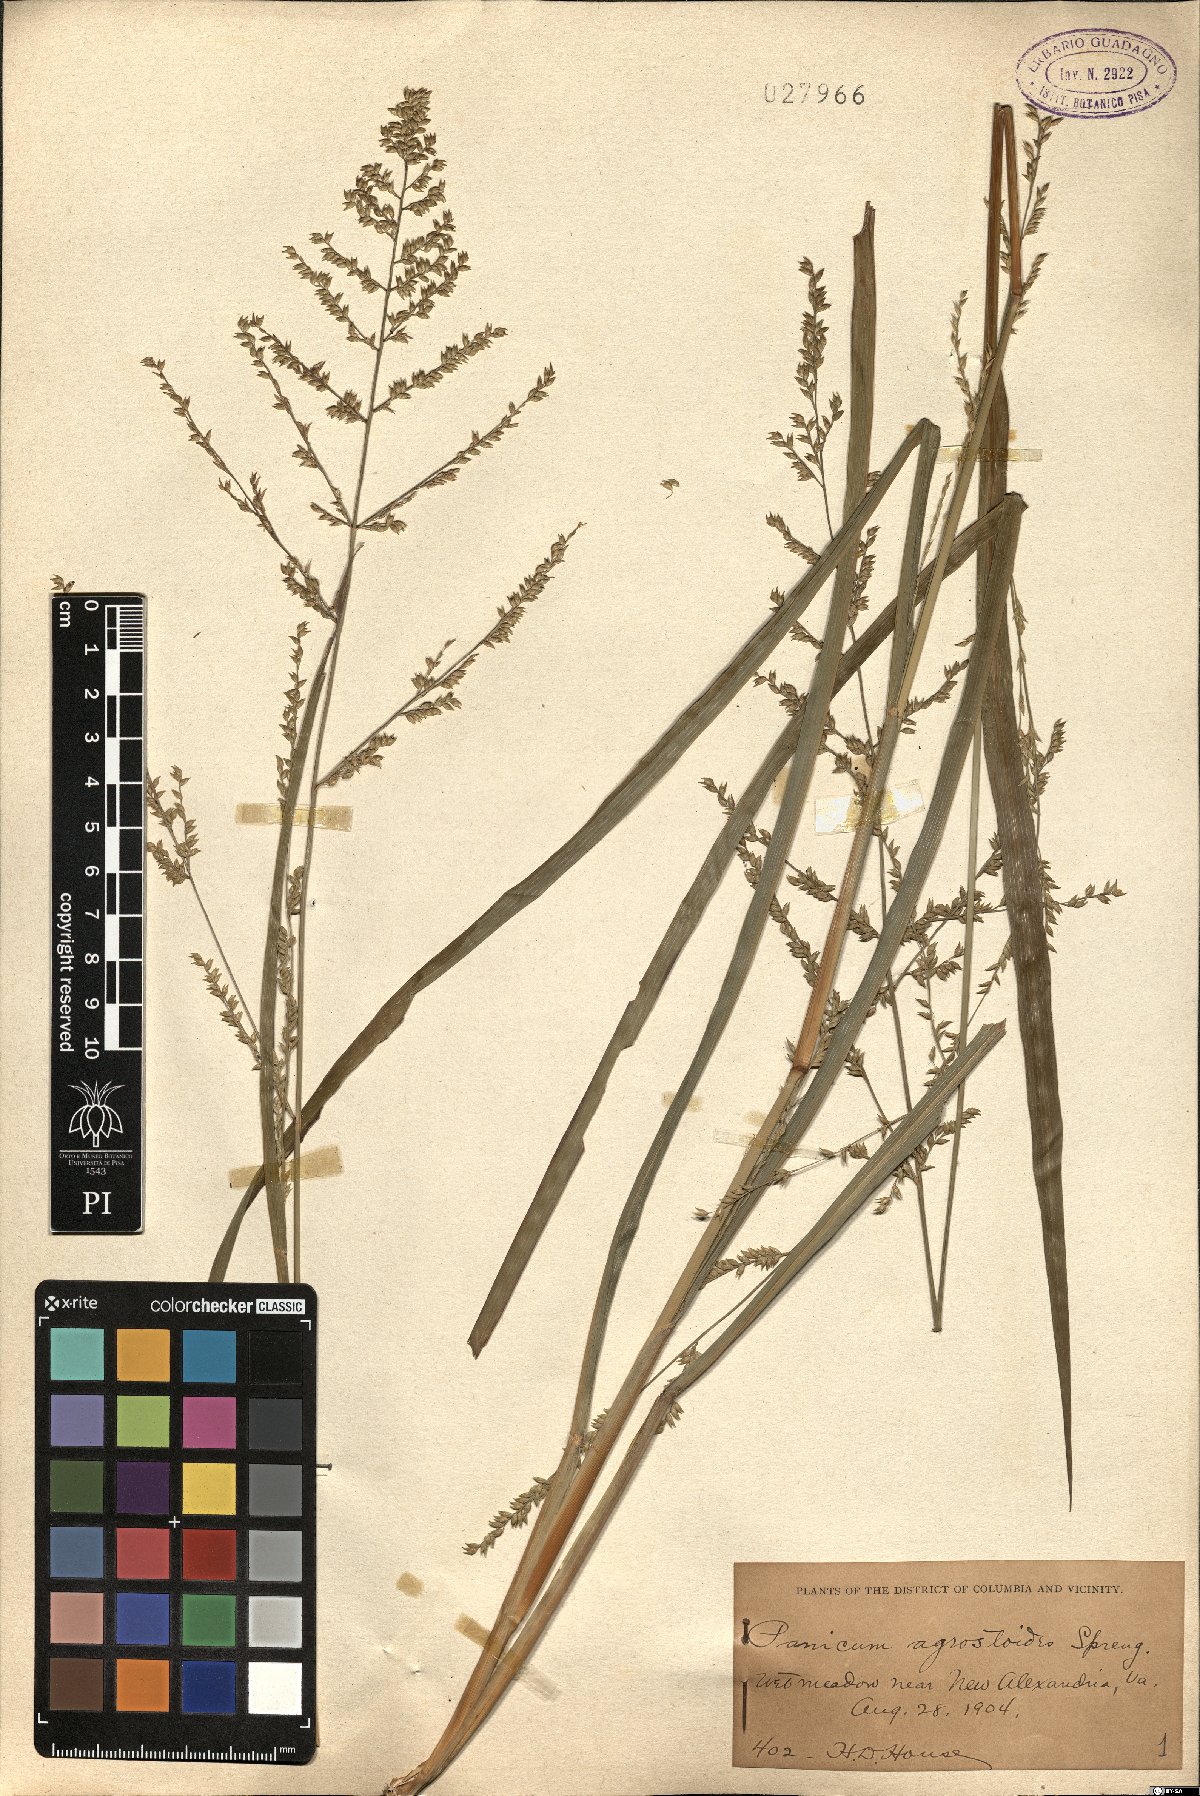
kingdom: Plantae
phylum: Tracheophyta
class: Liliopsida
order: Poales
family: Poaceae
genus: Steinchisma
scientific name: Steinchisma laxum
